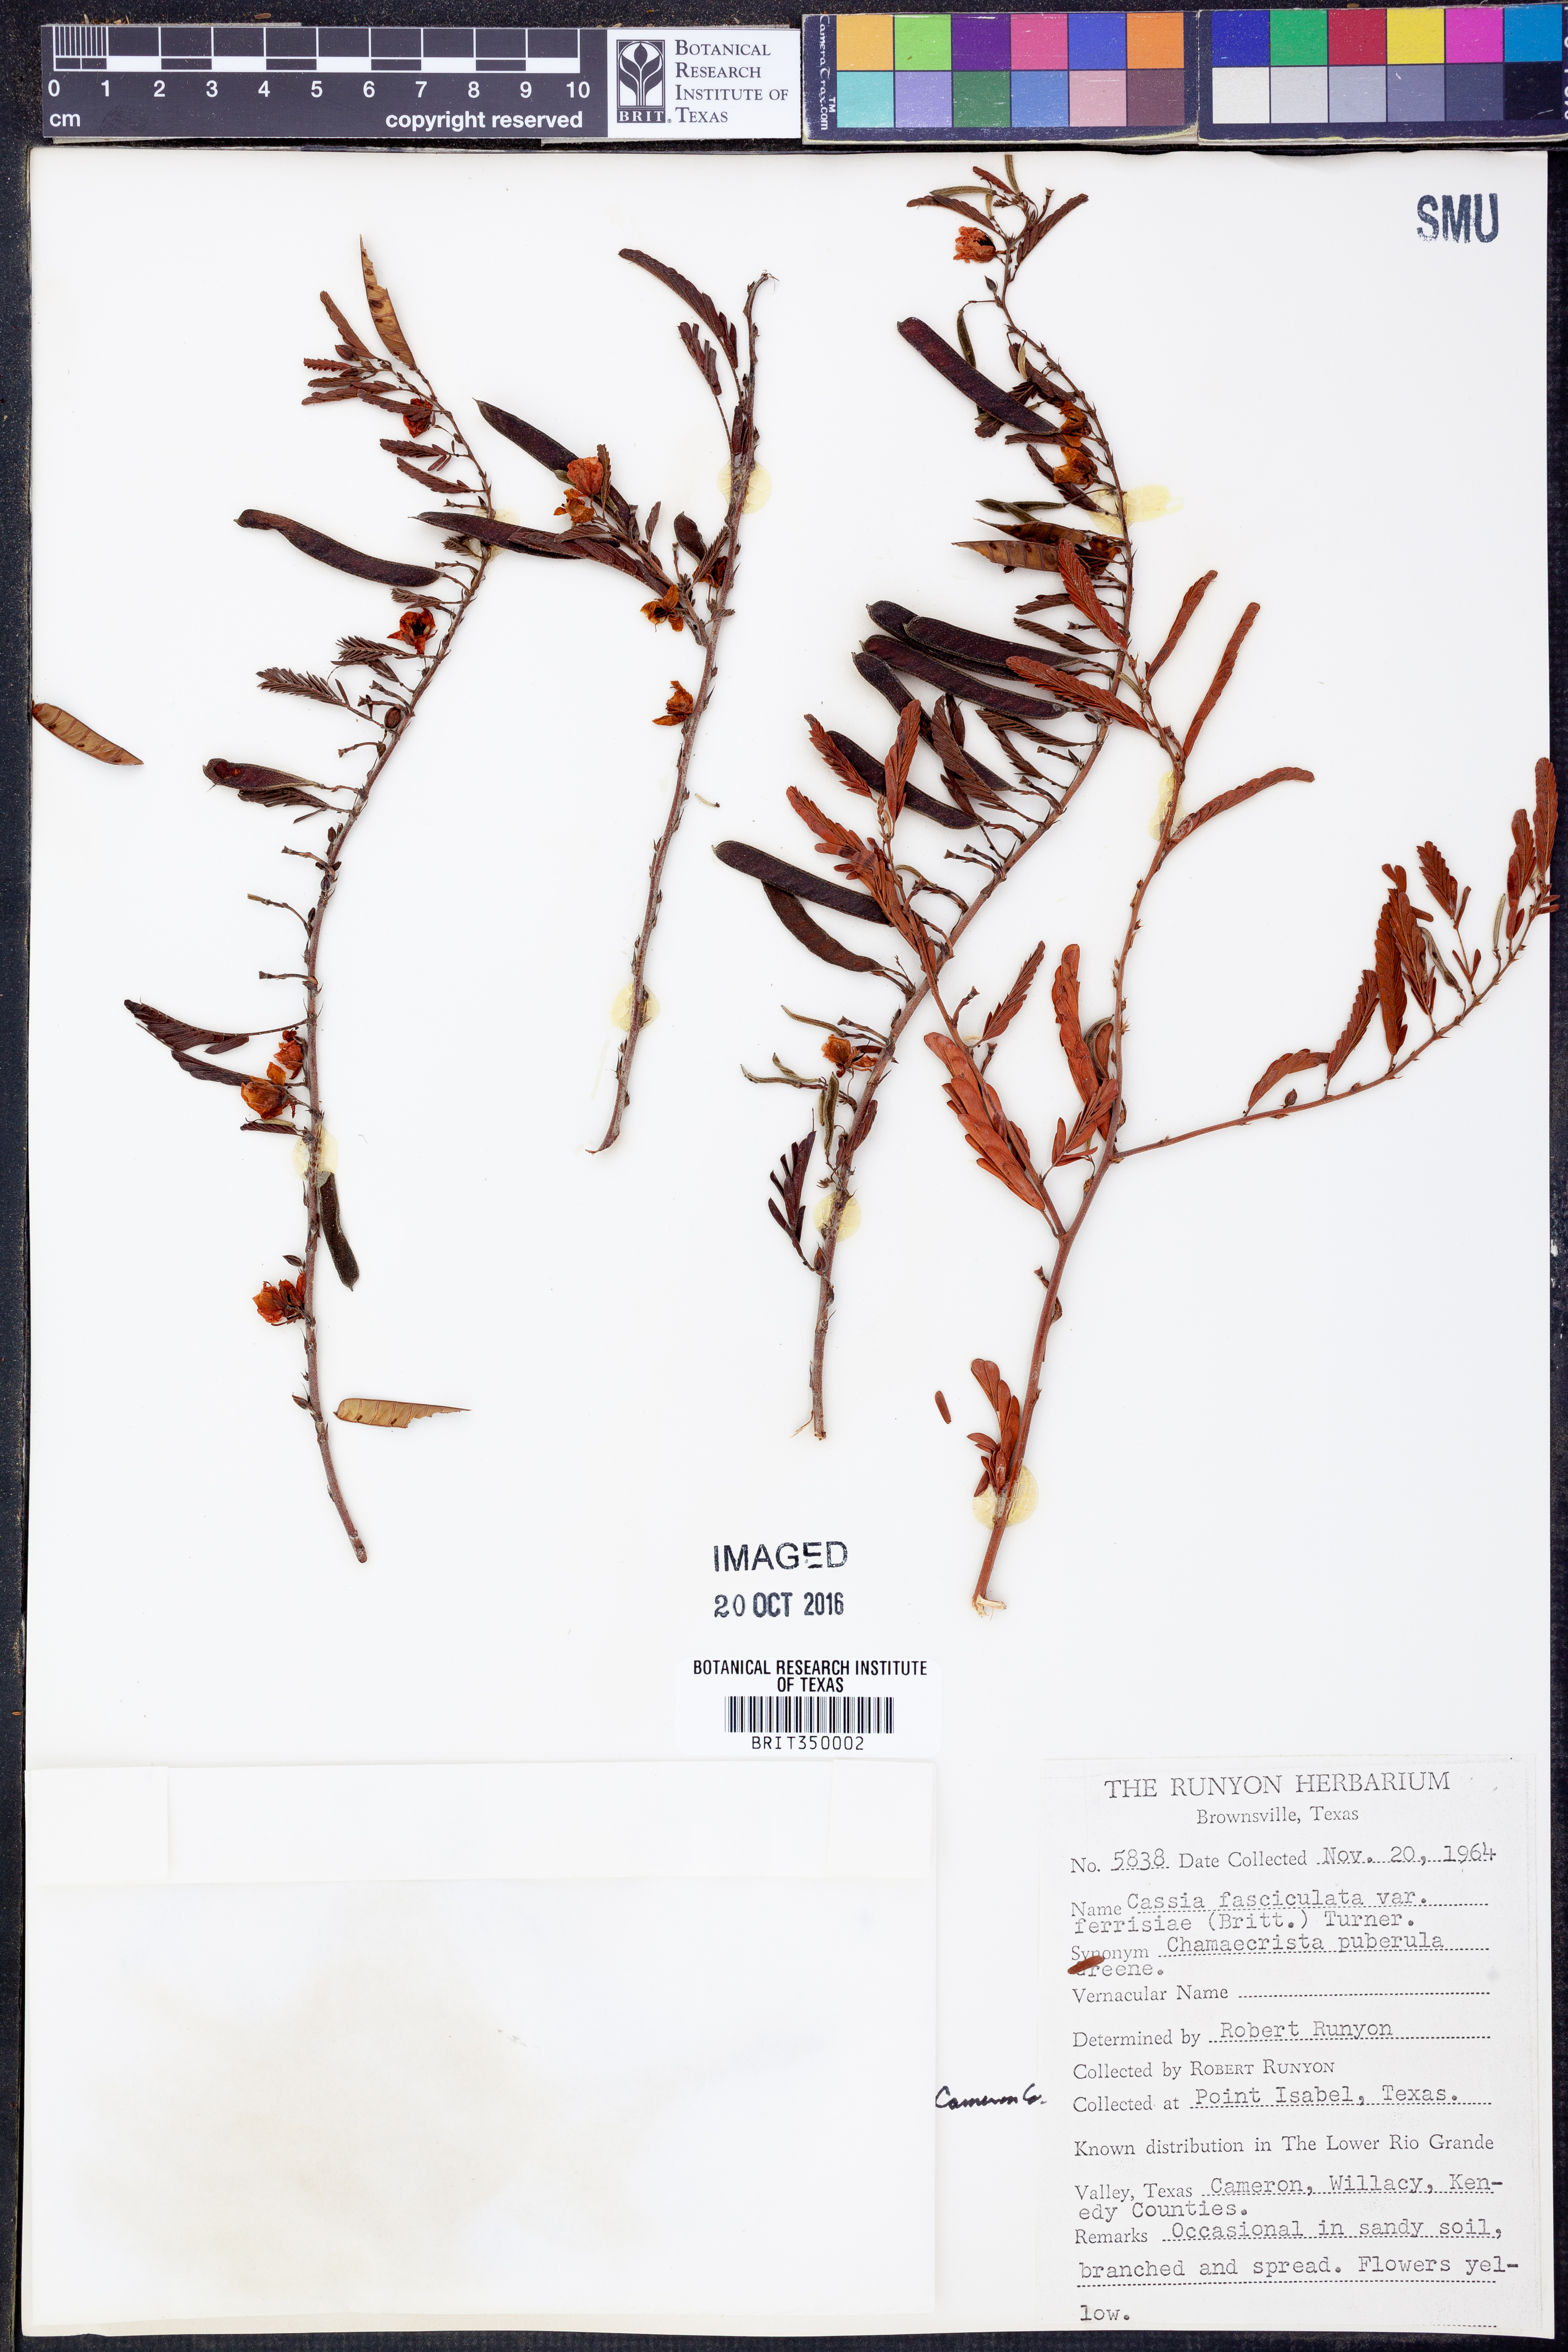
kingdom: Plantae
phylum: Tracheophyta
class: Magnoliopsida
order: Fabales
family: Fabaceae
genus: Chamaecrista
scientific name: Chamaecrista fasciculata
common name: Golden cassia
